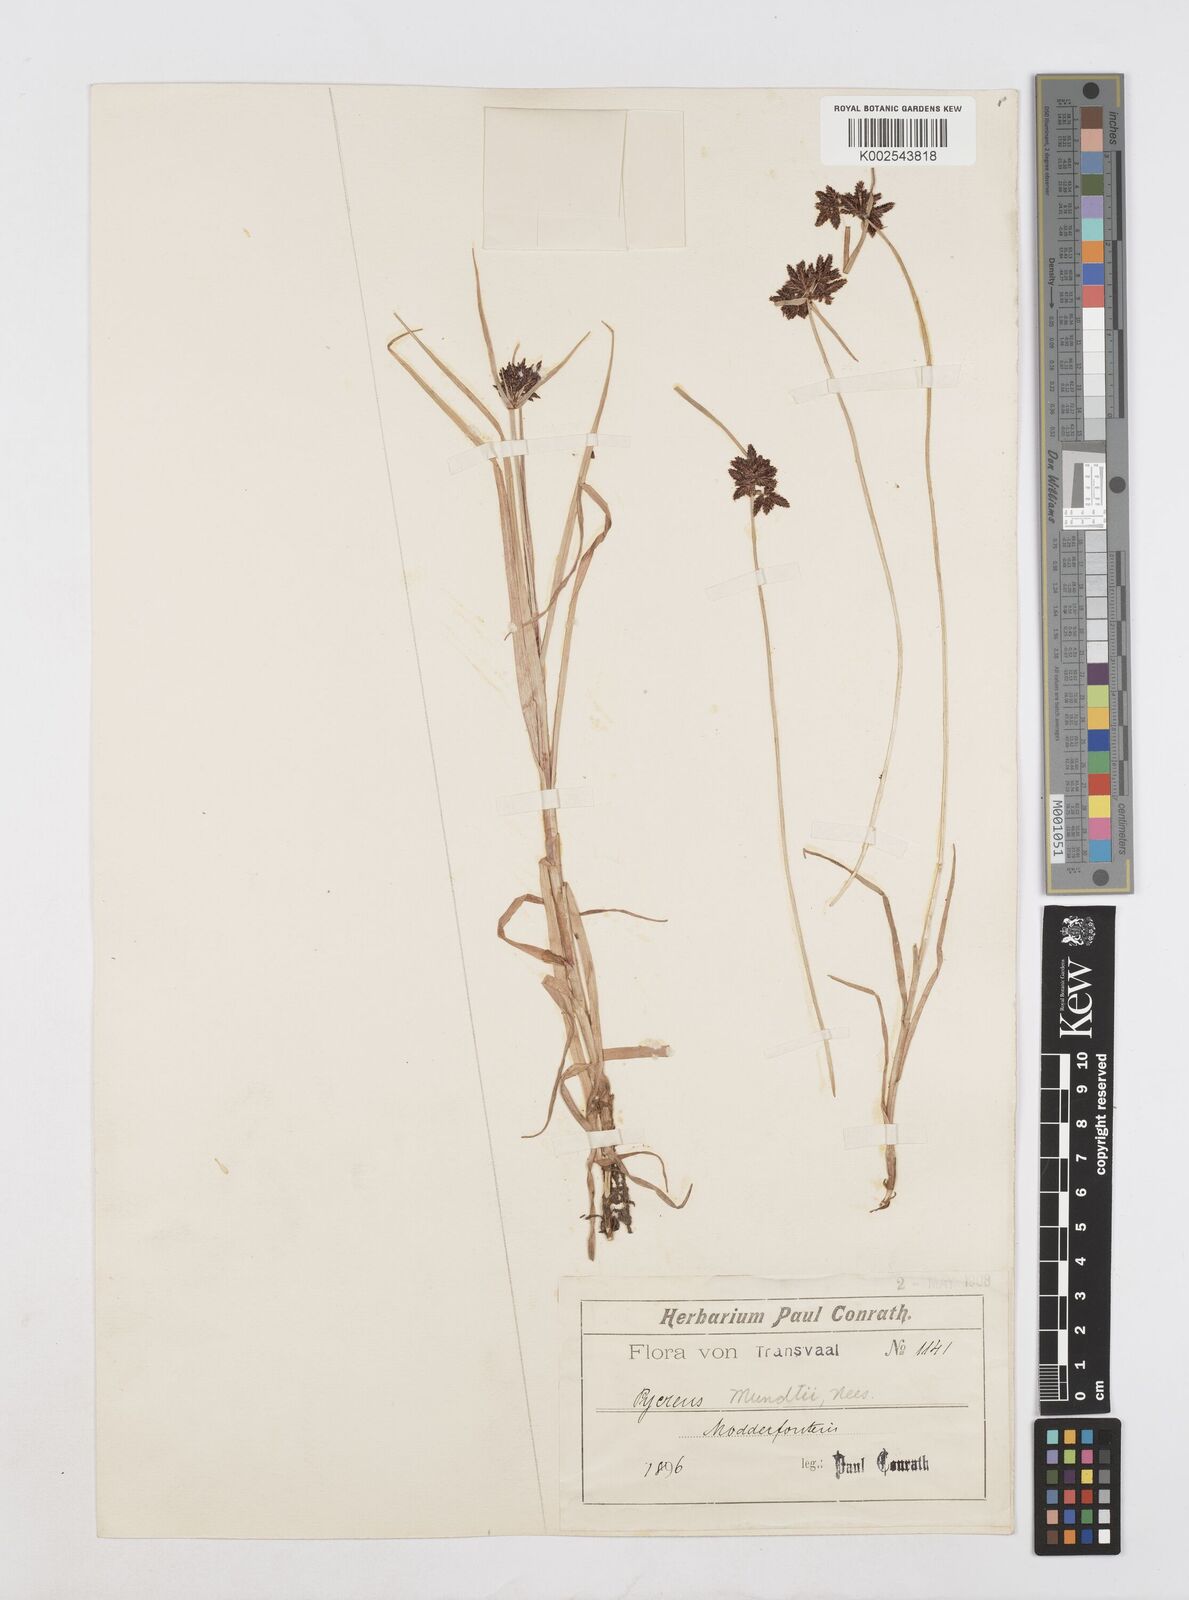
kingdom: Plantae
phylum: Tracheophyta
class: Liliopsida
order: Poales
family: Cyperaceae
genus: Cyperus
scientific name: Cyperus mundii
